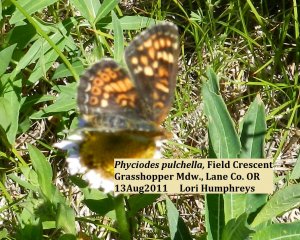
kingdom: Animalia
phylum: Arthropoda
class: Insecta
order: Lepidoptera
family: Nymphalidae
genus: Phyciodes
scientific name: Phyciodes tharos
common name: Field Crescent
